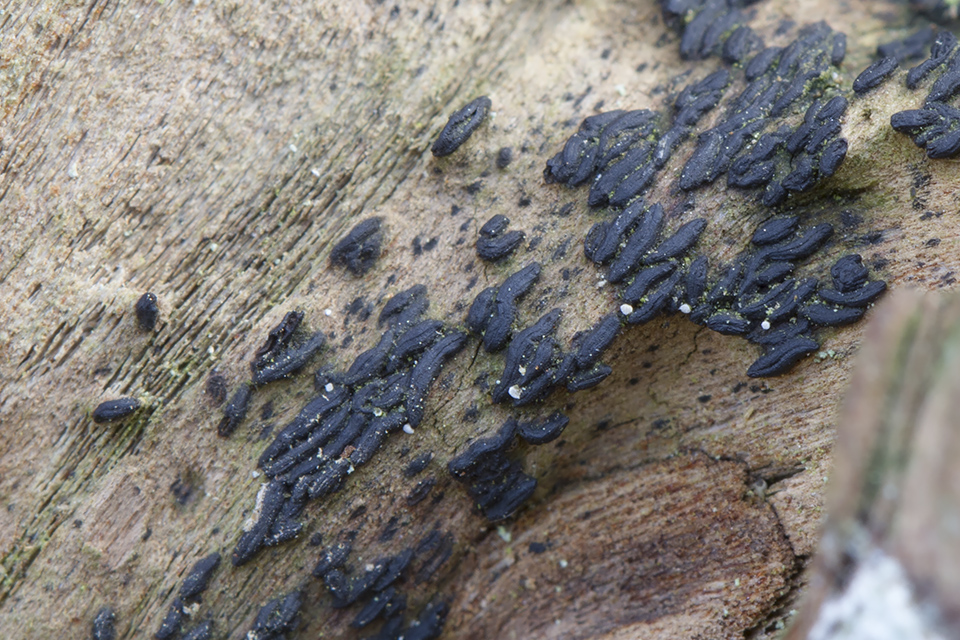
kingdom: Fungi
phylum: Ascomycota
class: Dothideomycetes
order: Hysteriales
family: Hysteriaceae
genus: Hysterium
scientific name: Hysterium acuminatum
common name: almindelig kulmund
